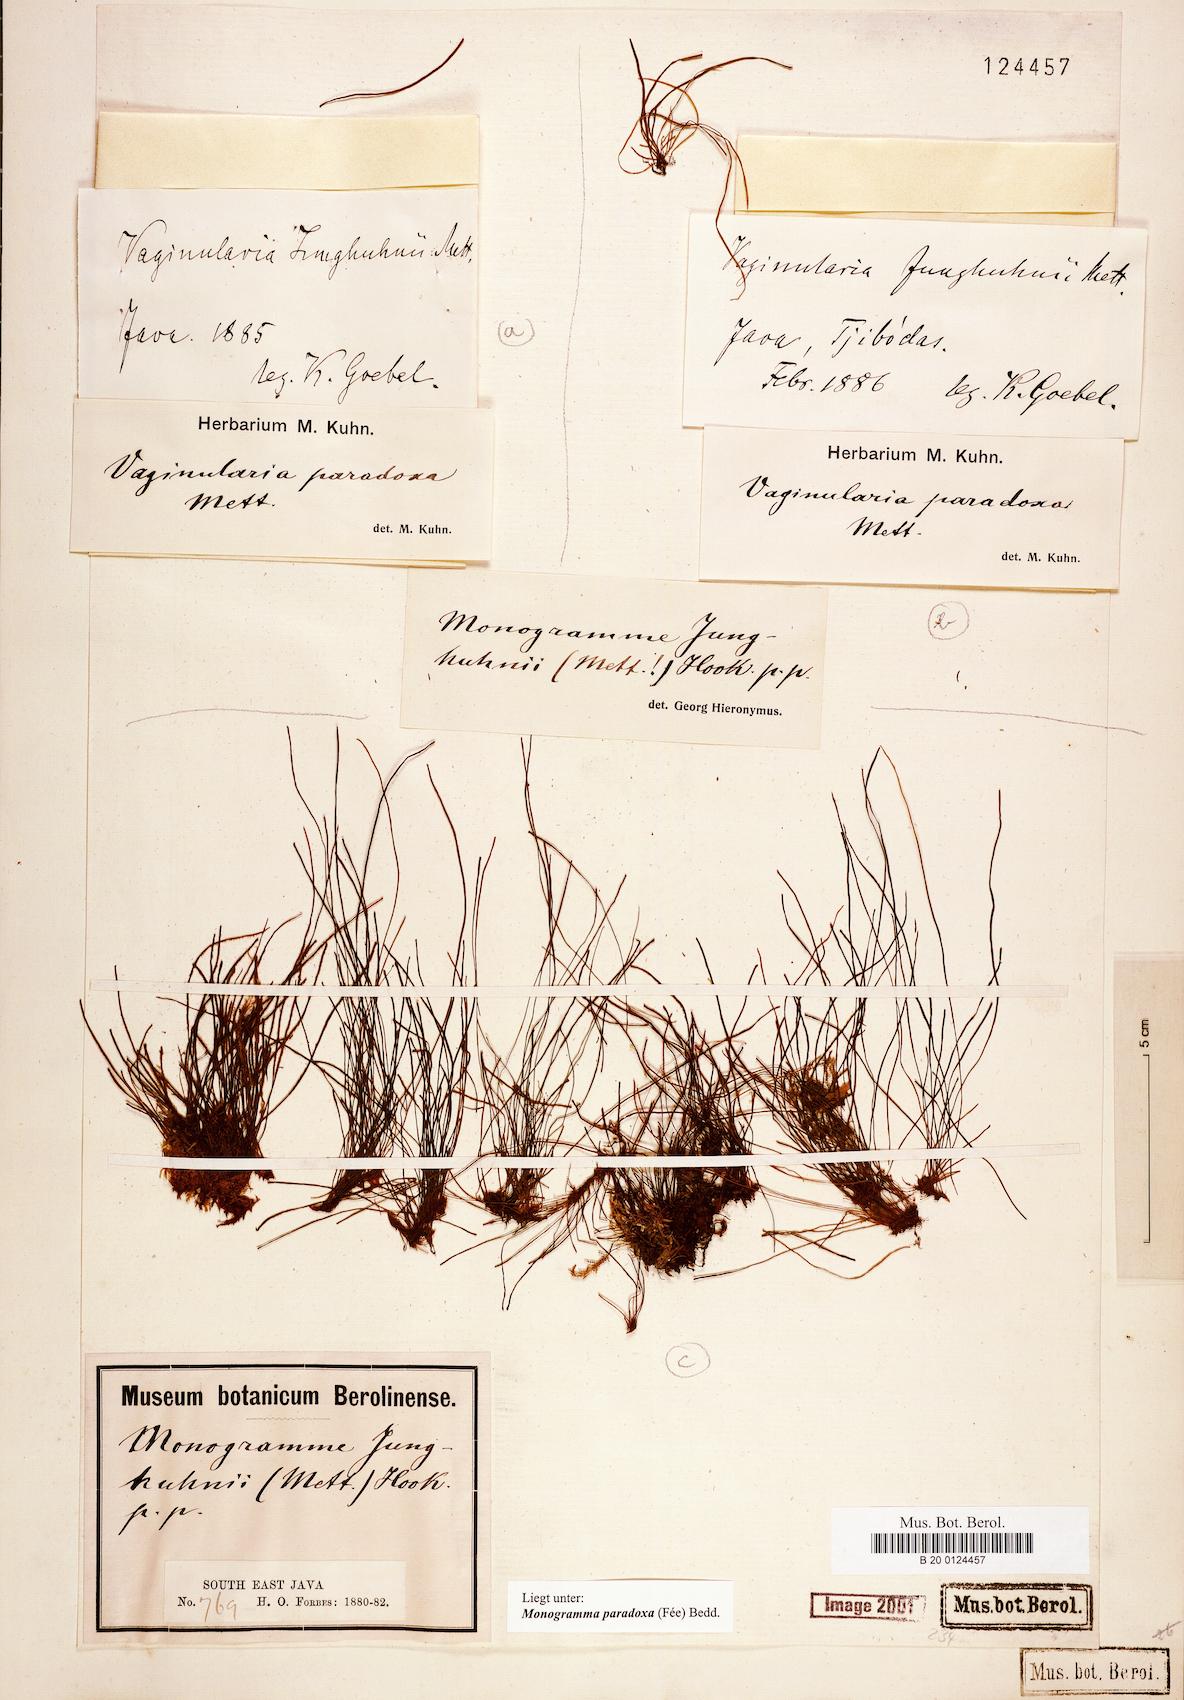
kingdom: Plantae
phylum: Tracheophyta
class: Polypodiopsida
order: Polypodiales
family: Pteridaceae
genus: Vaginularia
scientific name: Vaginularia paradoxa
